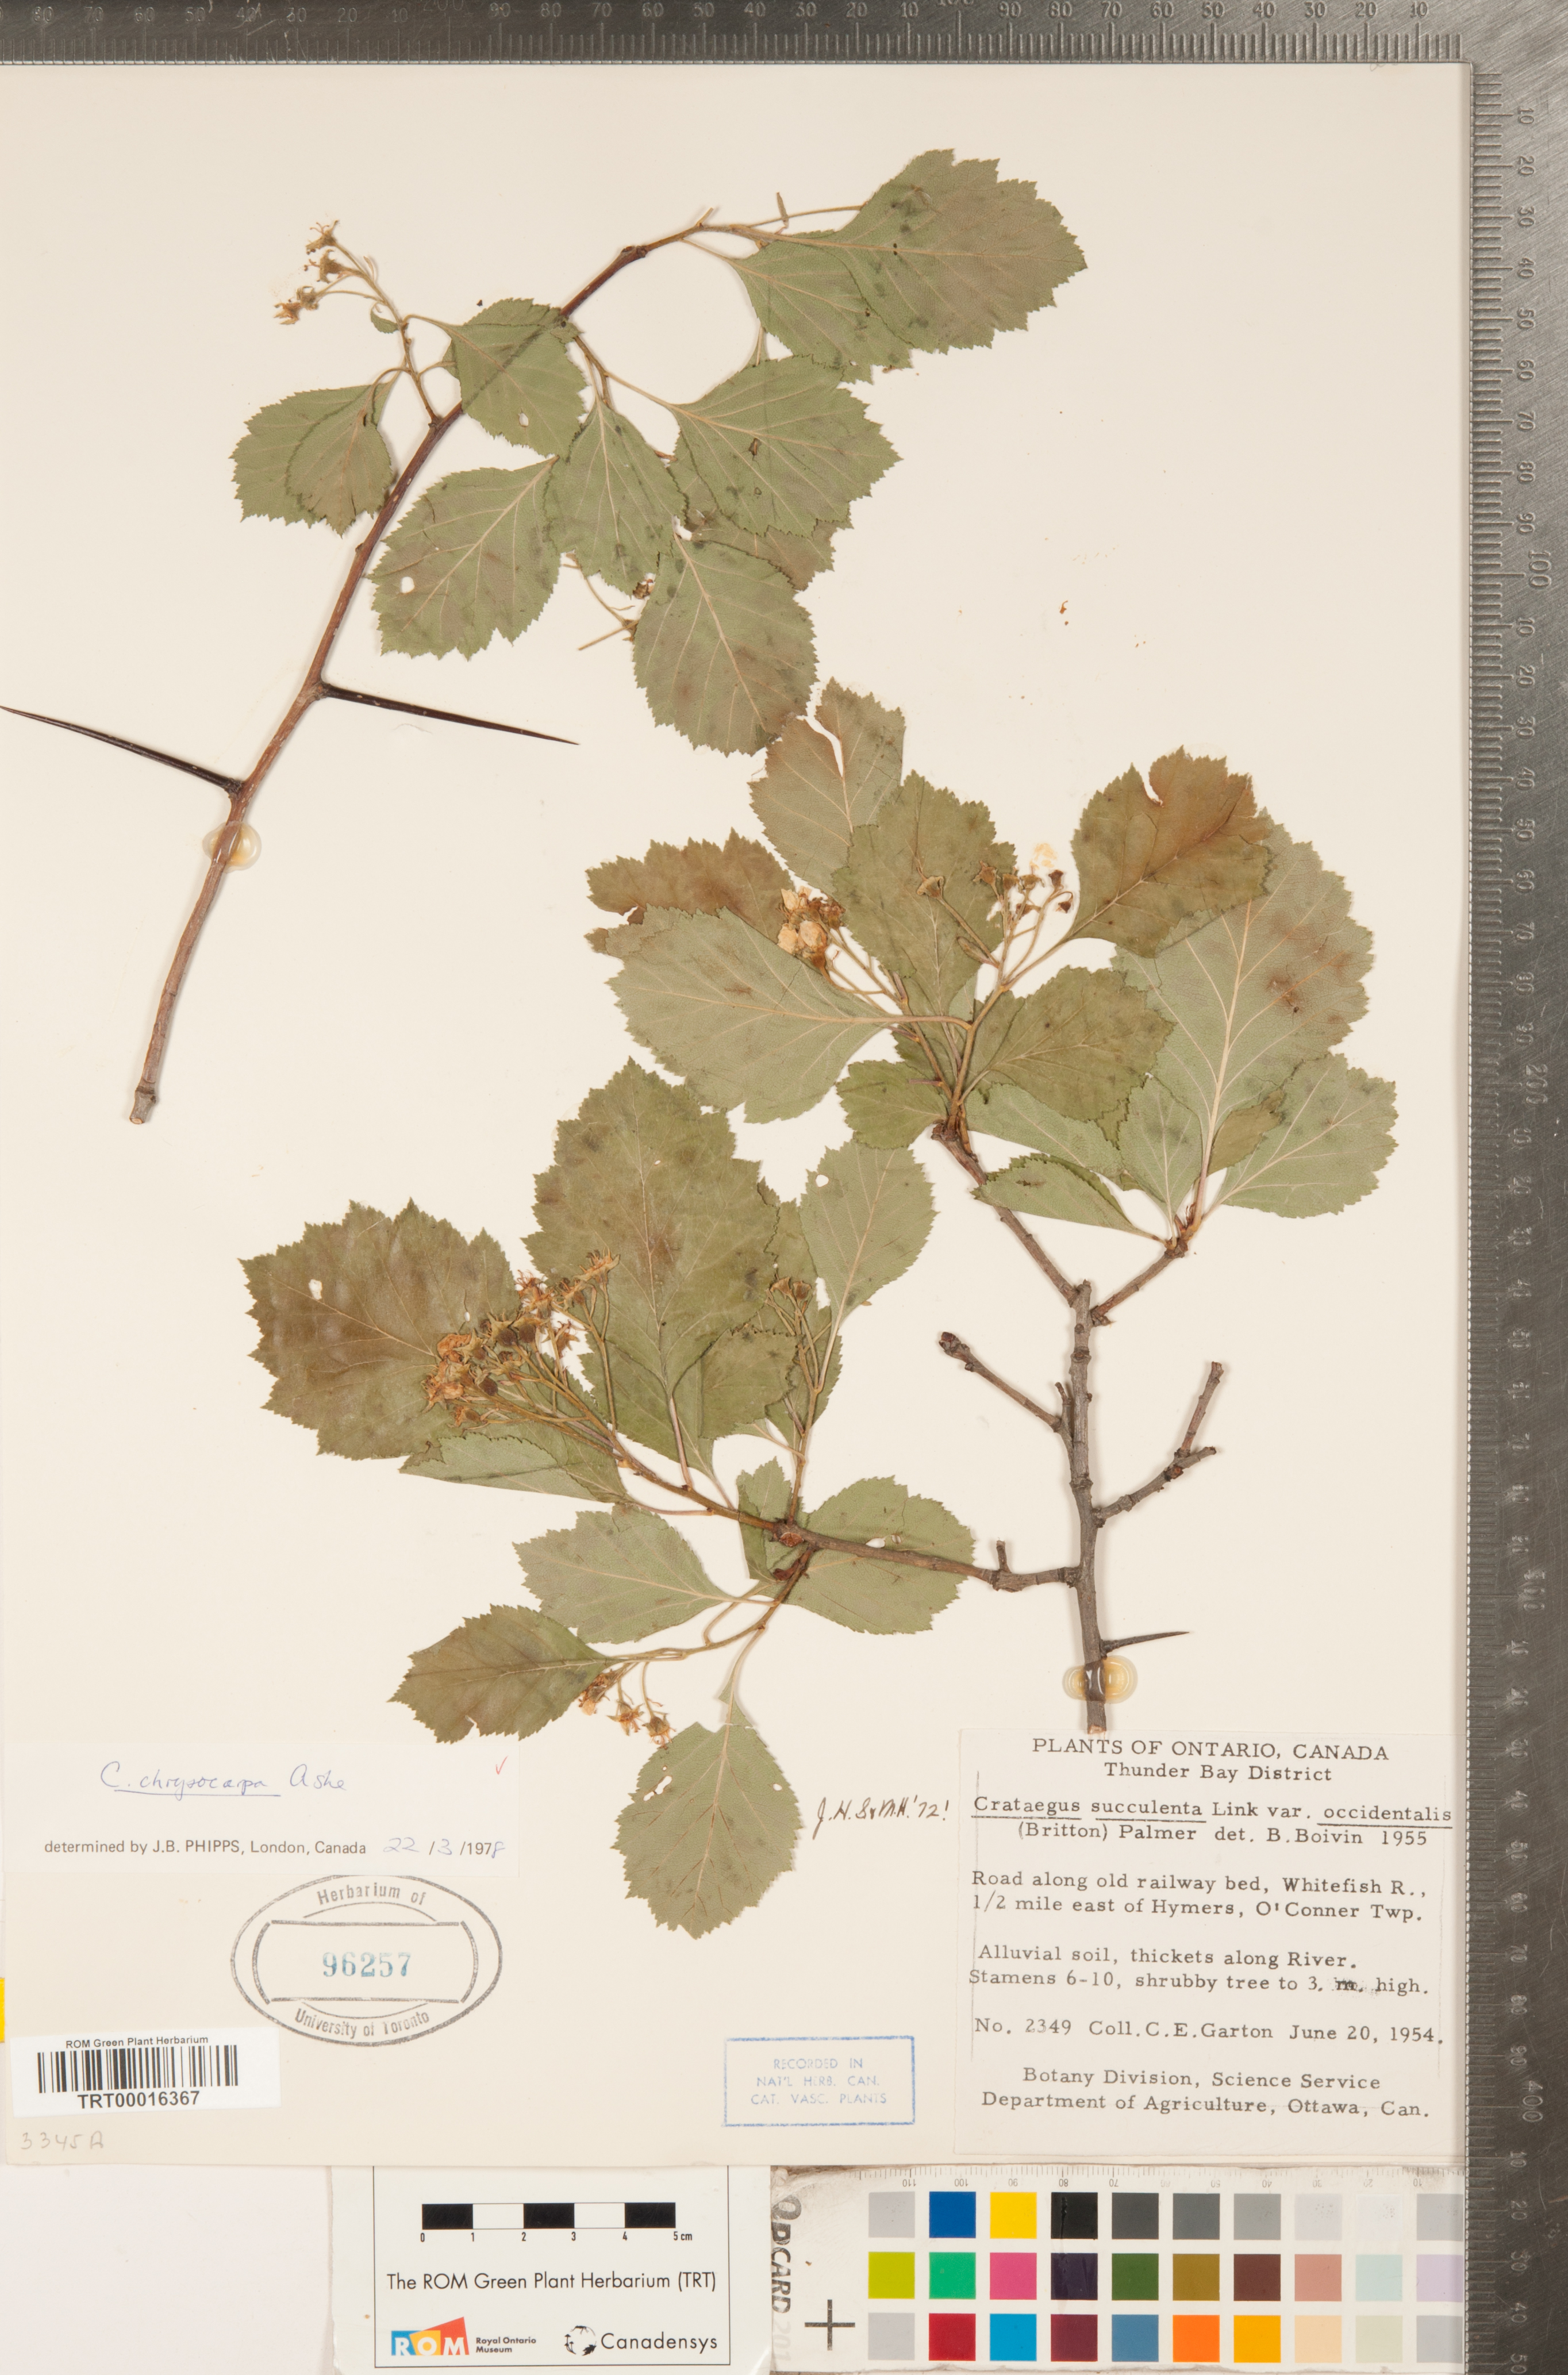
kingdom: Plantae
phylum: Tracheophyta
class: Magnoliopsida
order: Rosales
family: Rosaceae
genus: Crataegus
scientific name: Crataegus chrysocarpa
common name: Fire-berry hawthorn
